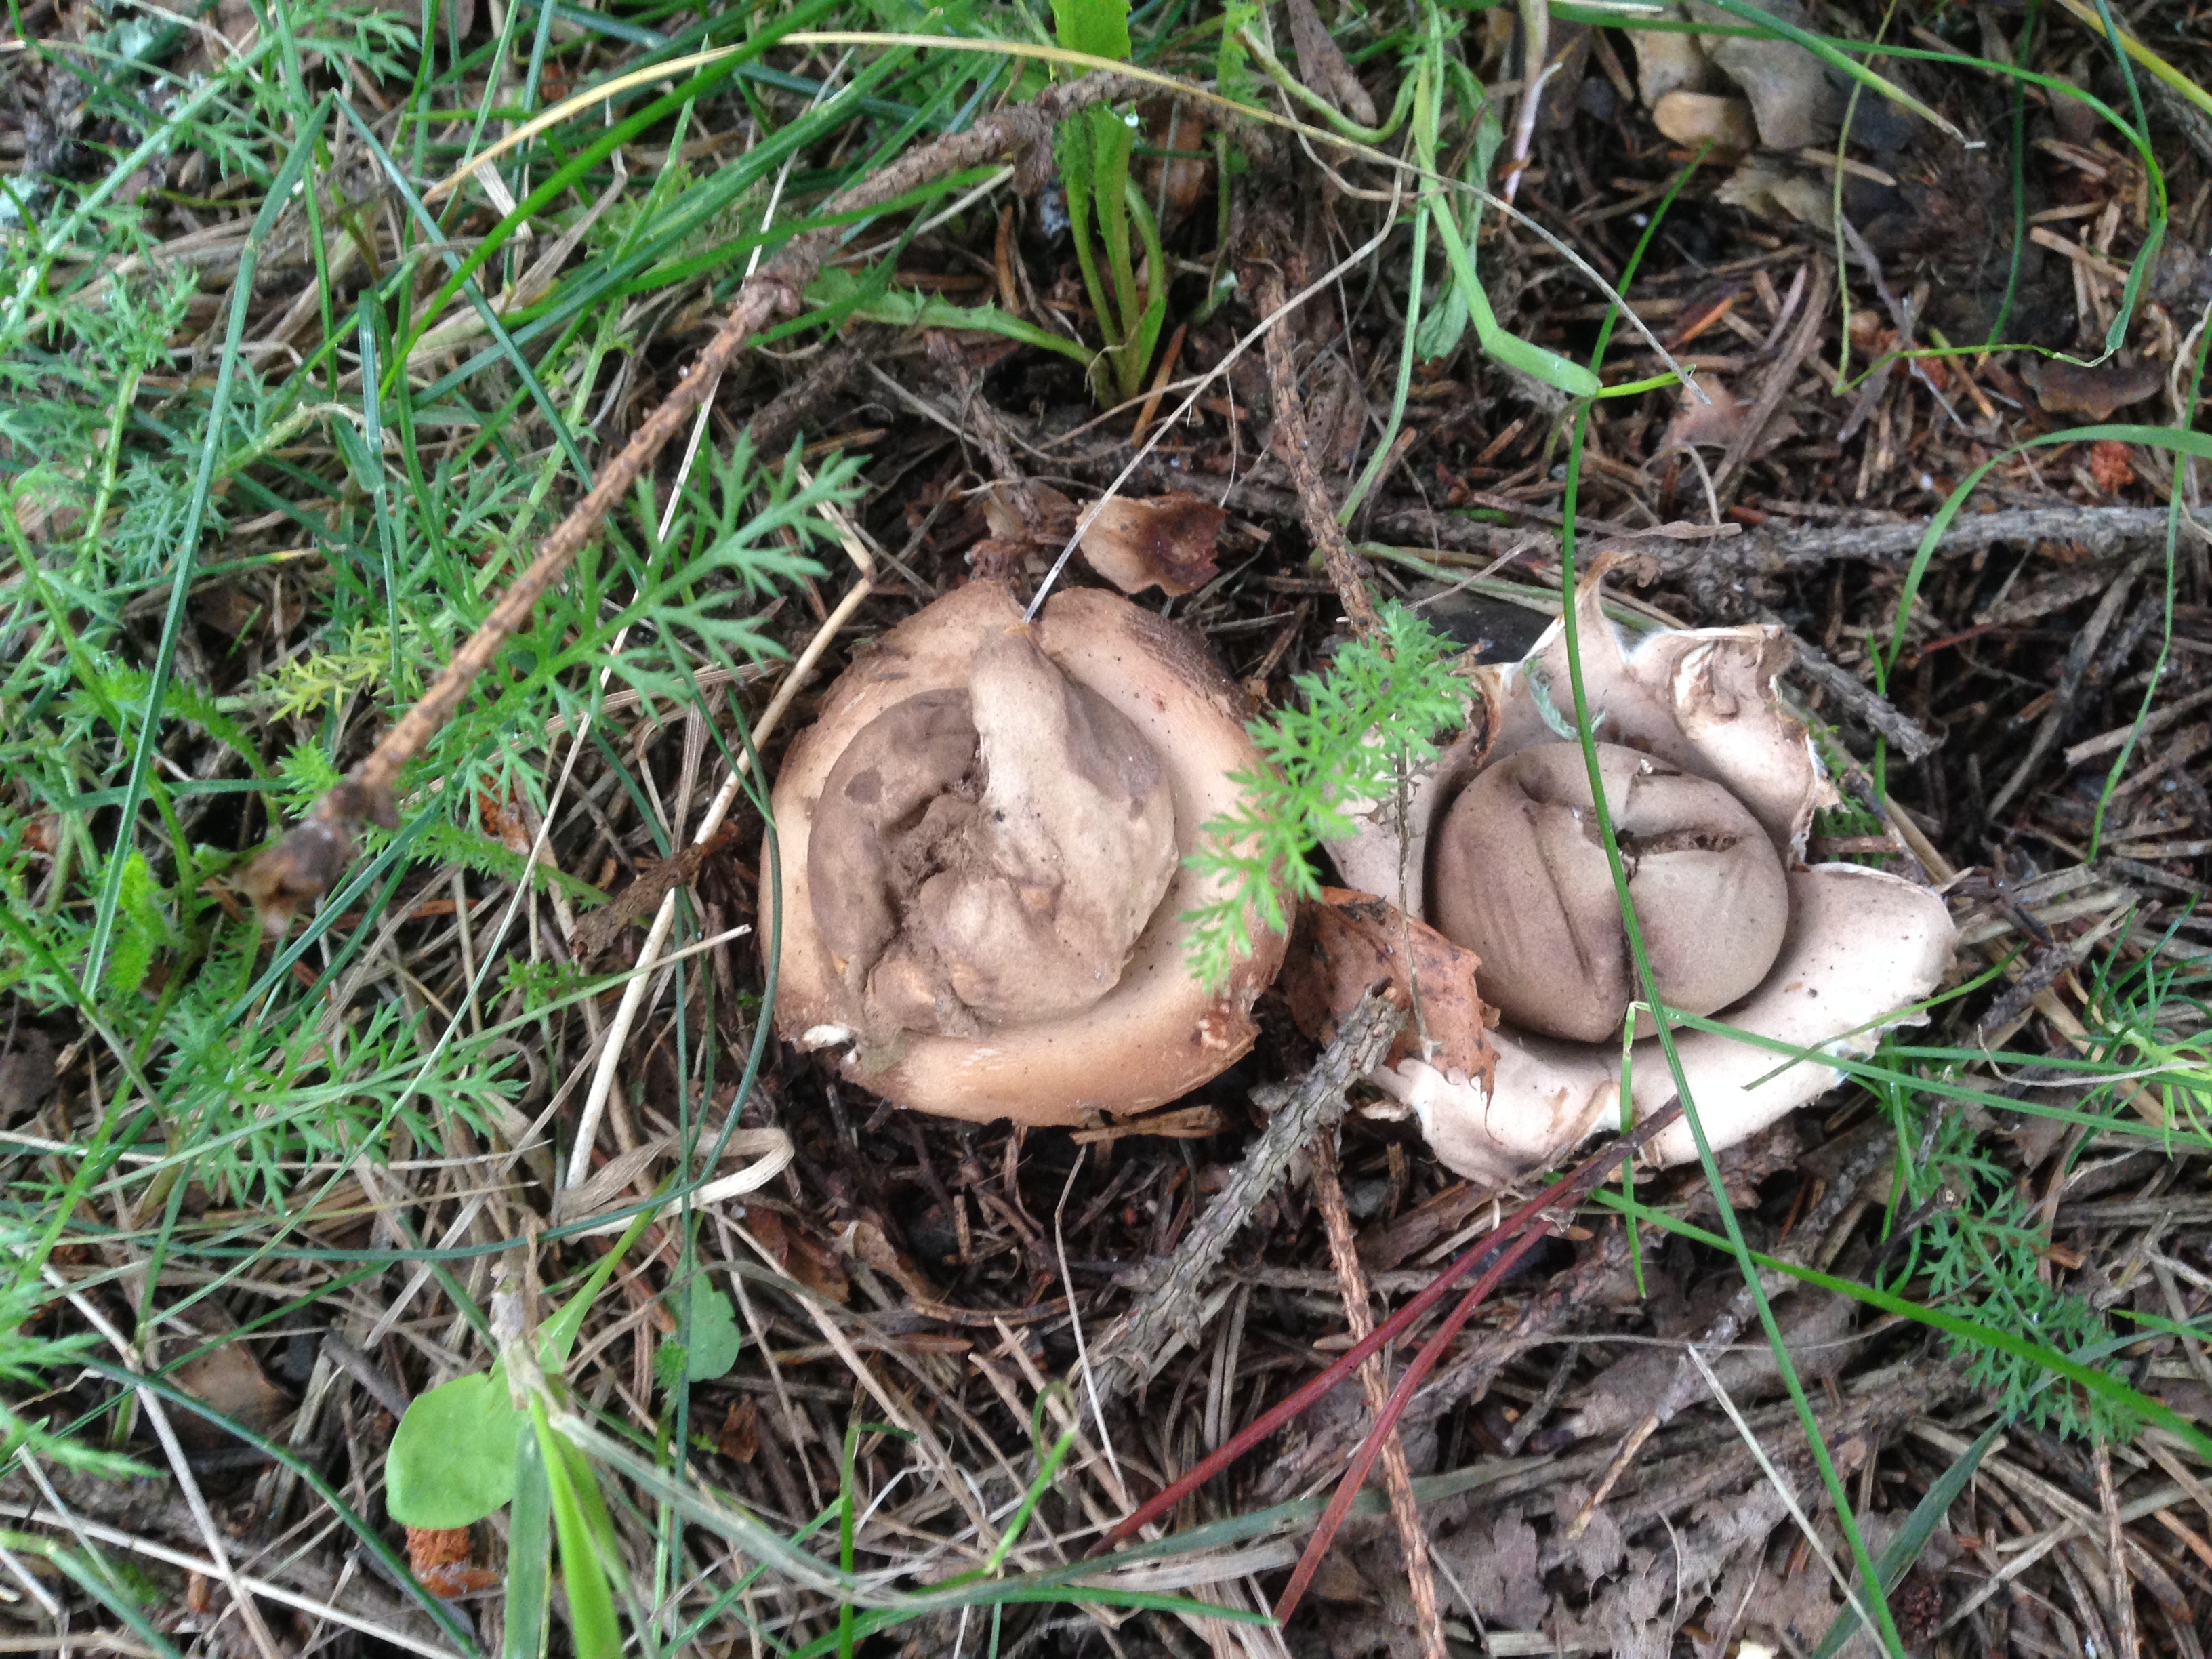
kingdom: Fungi
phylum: Basidiomycota
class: Agaricomycetes
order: Geastrales
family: Geastraceae
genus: Geastrum
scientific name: Geastrum fimbriatum
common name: Sessile earthstar
